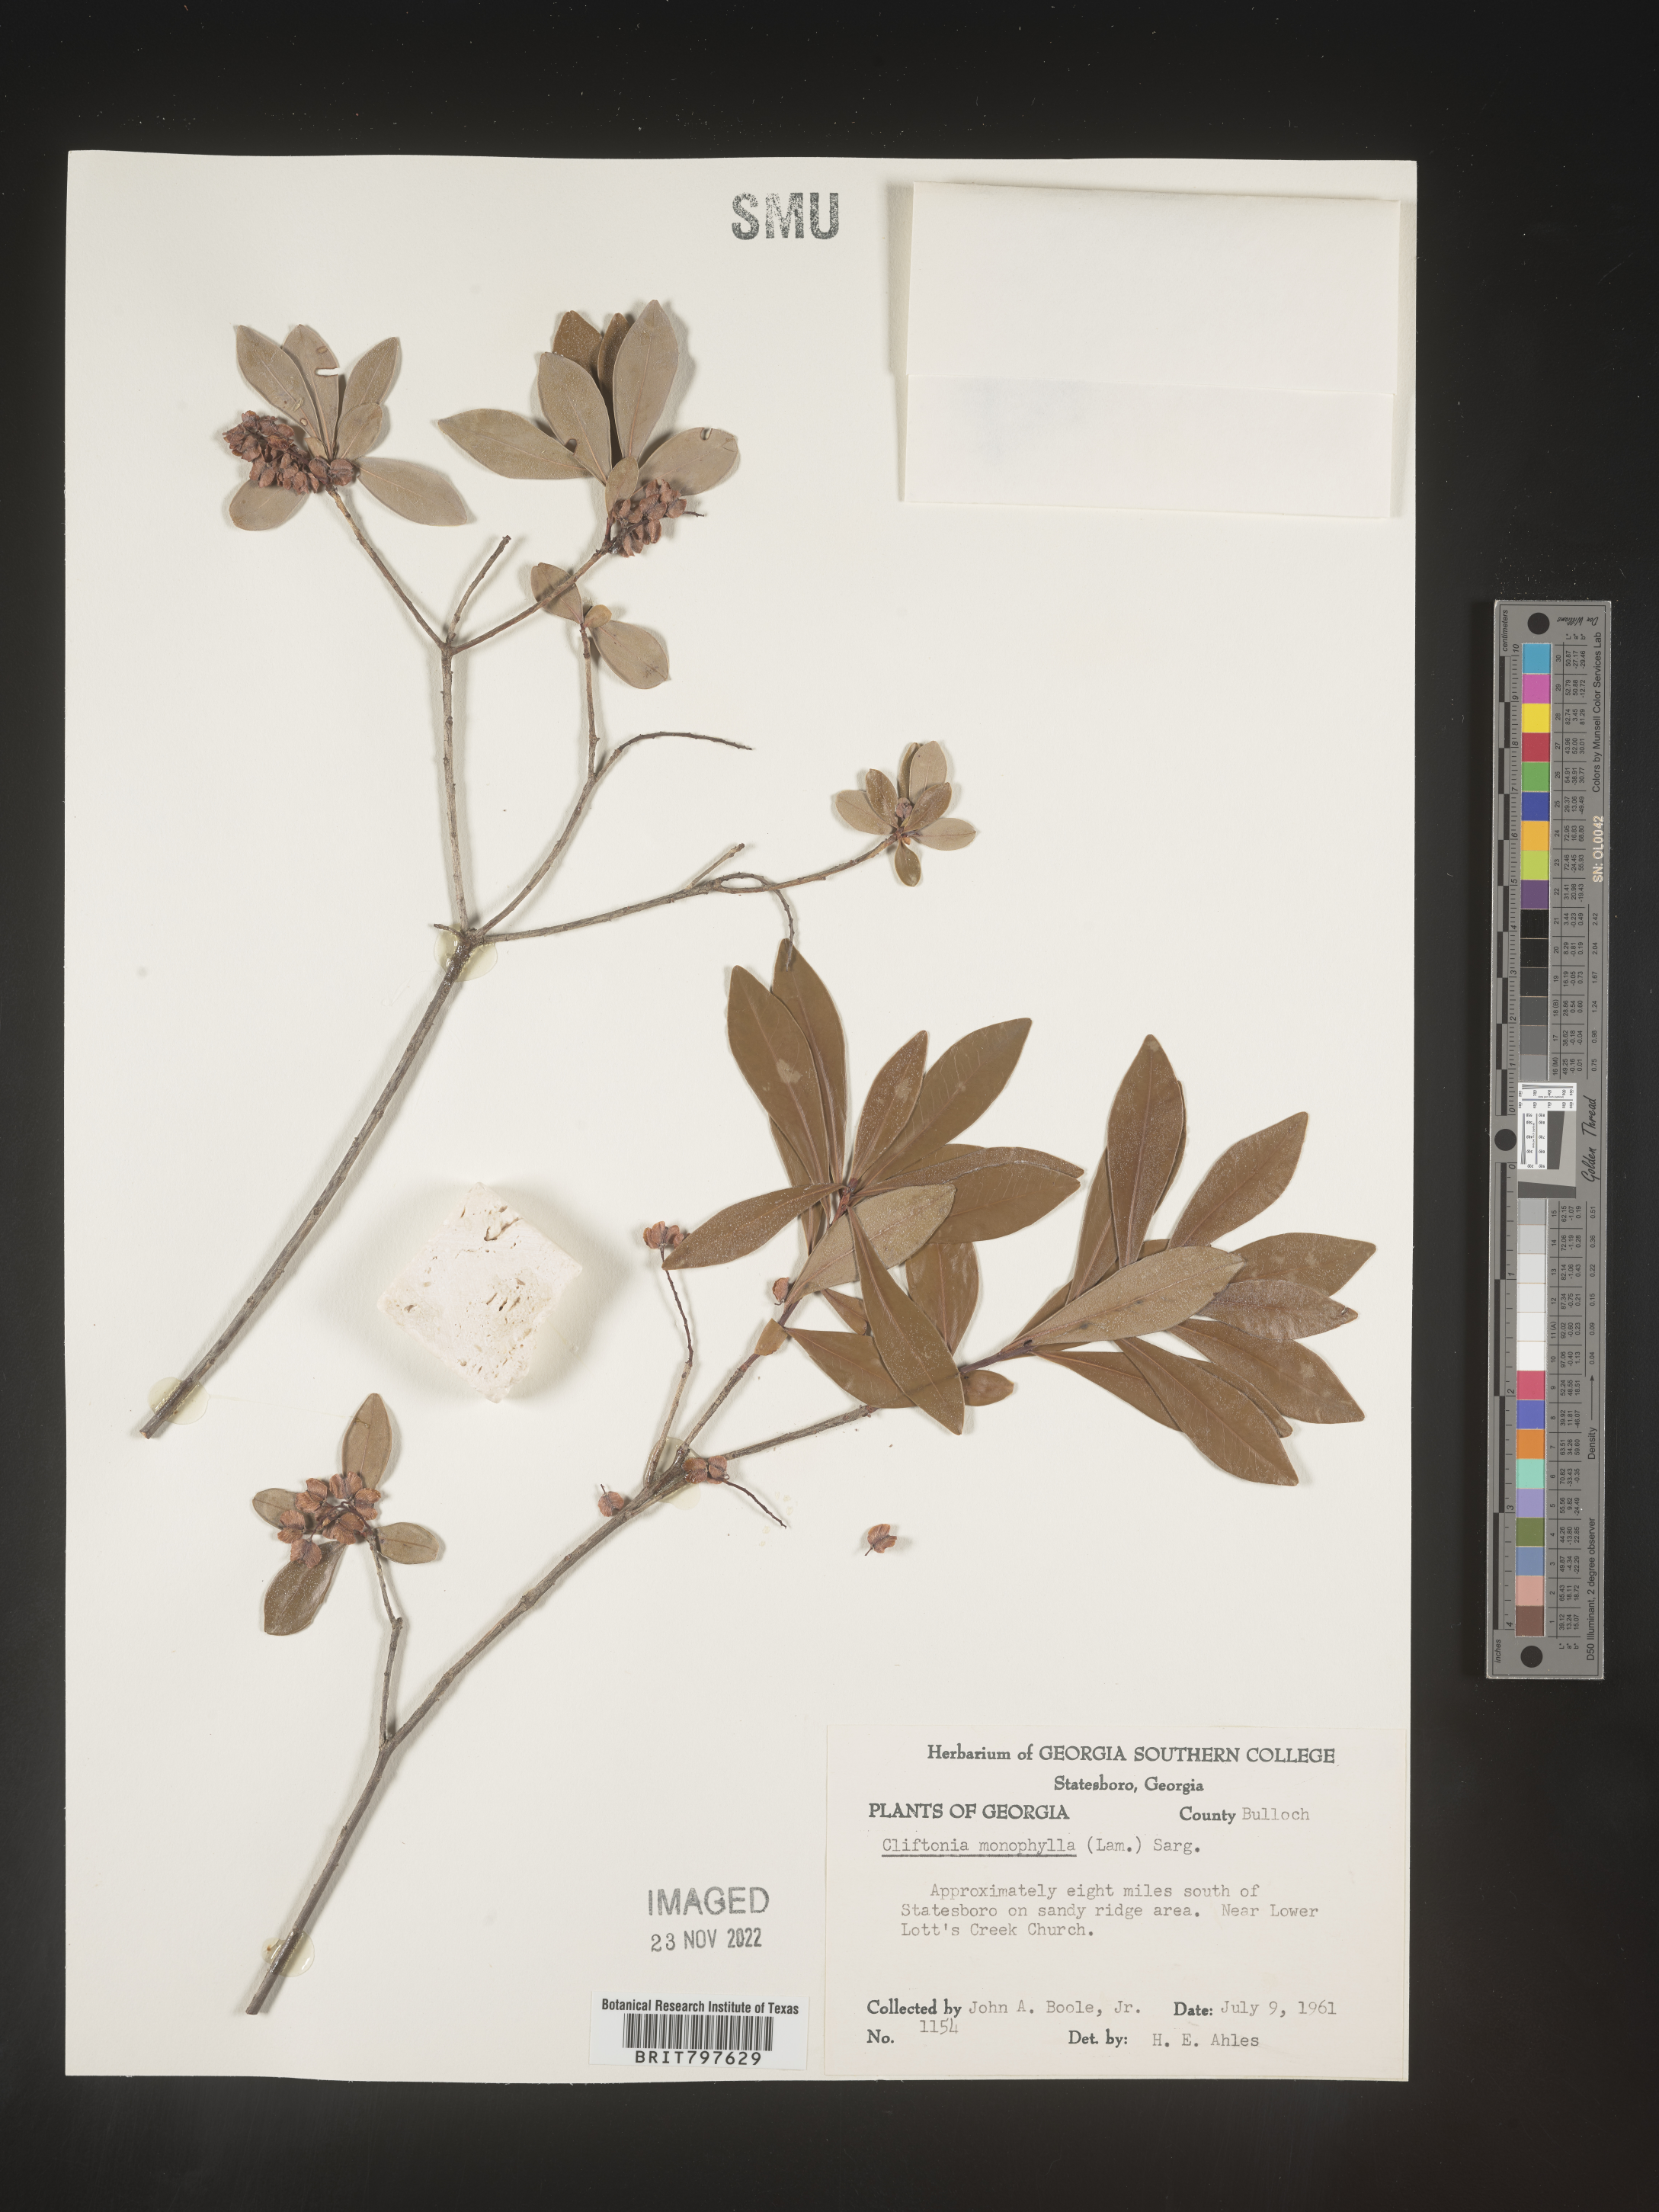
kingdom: Plantae
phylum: Tracheophyta
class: Magnoliopsida
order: Ericales
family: Cyrillaceae
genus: Cliftonia
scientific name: Cliftonia monophylla
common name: Titi
